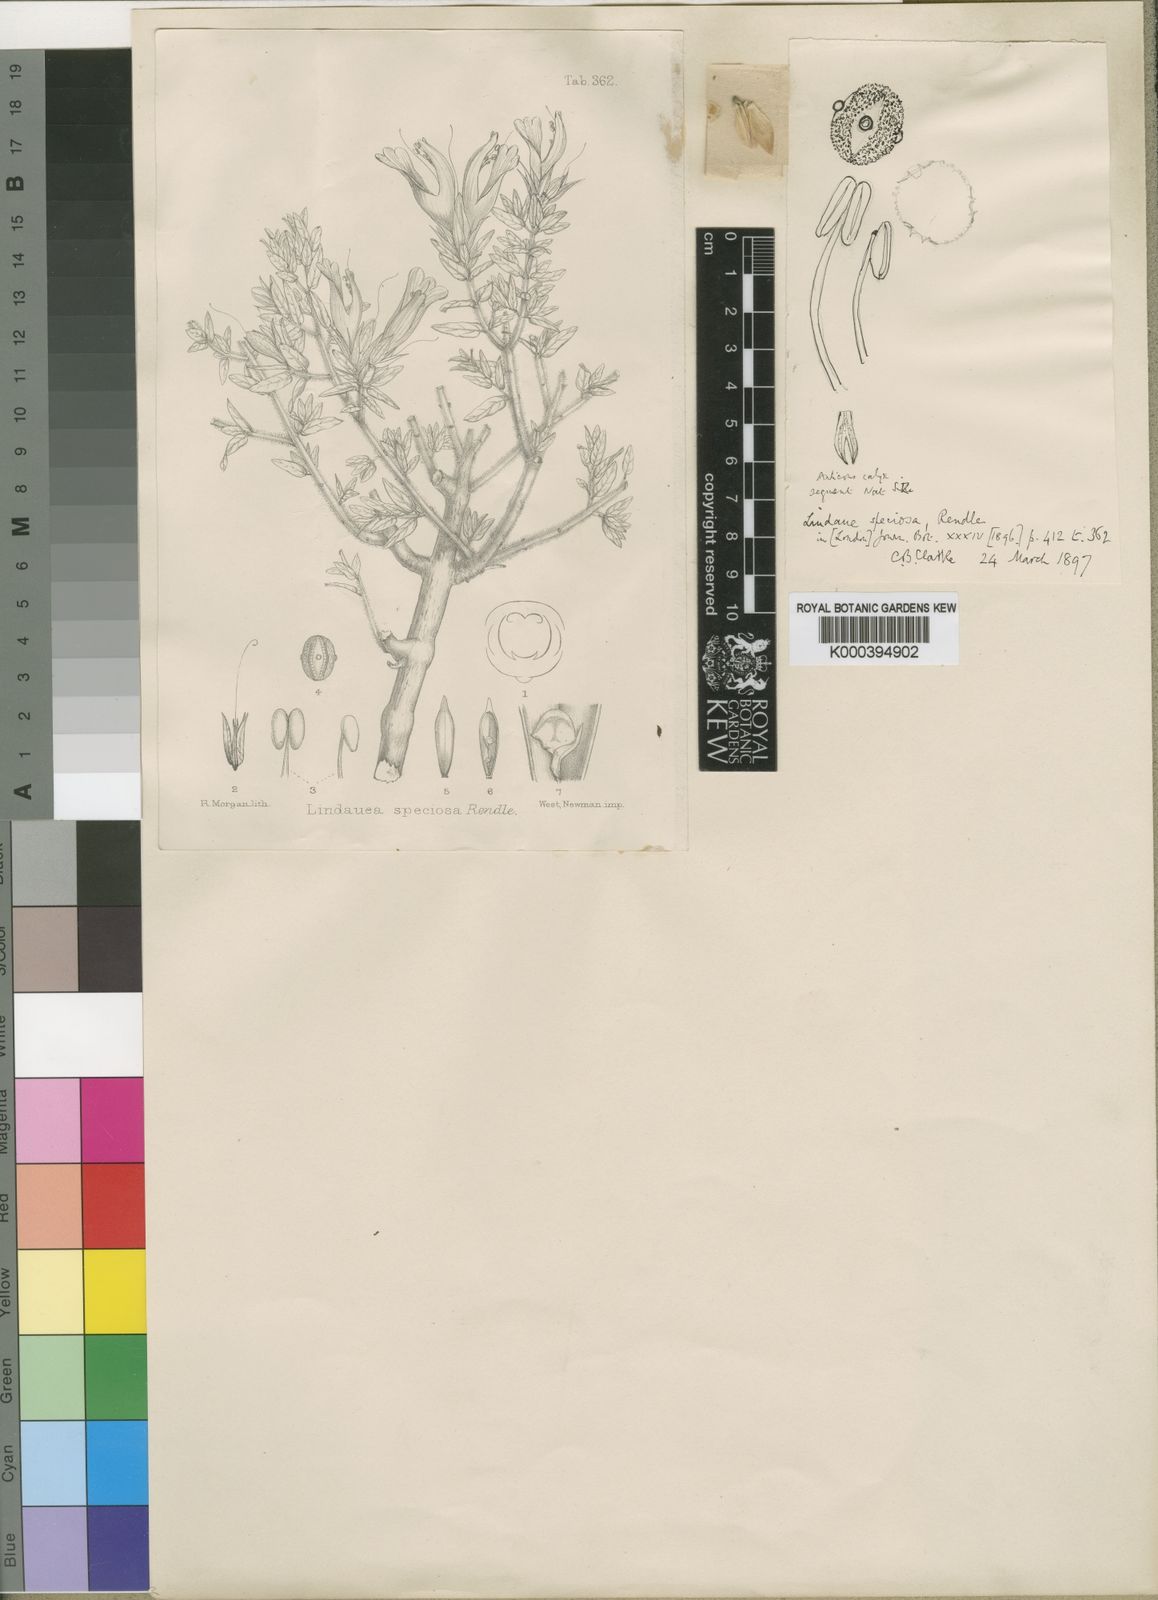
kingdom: Plantae
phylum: Tracheophyta
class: Magnoliopsida
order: Lamiales
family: Acanthaceae
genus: Lepidagathis
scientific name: Lepidagathis
